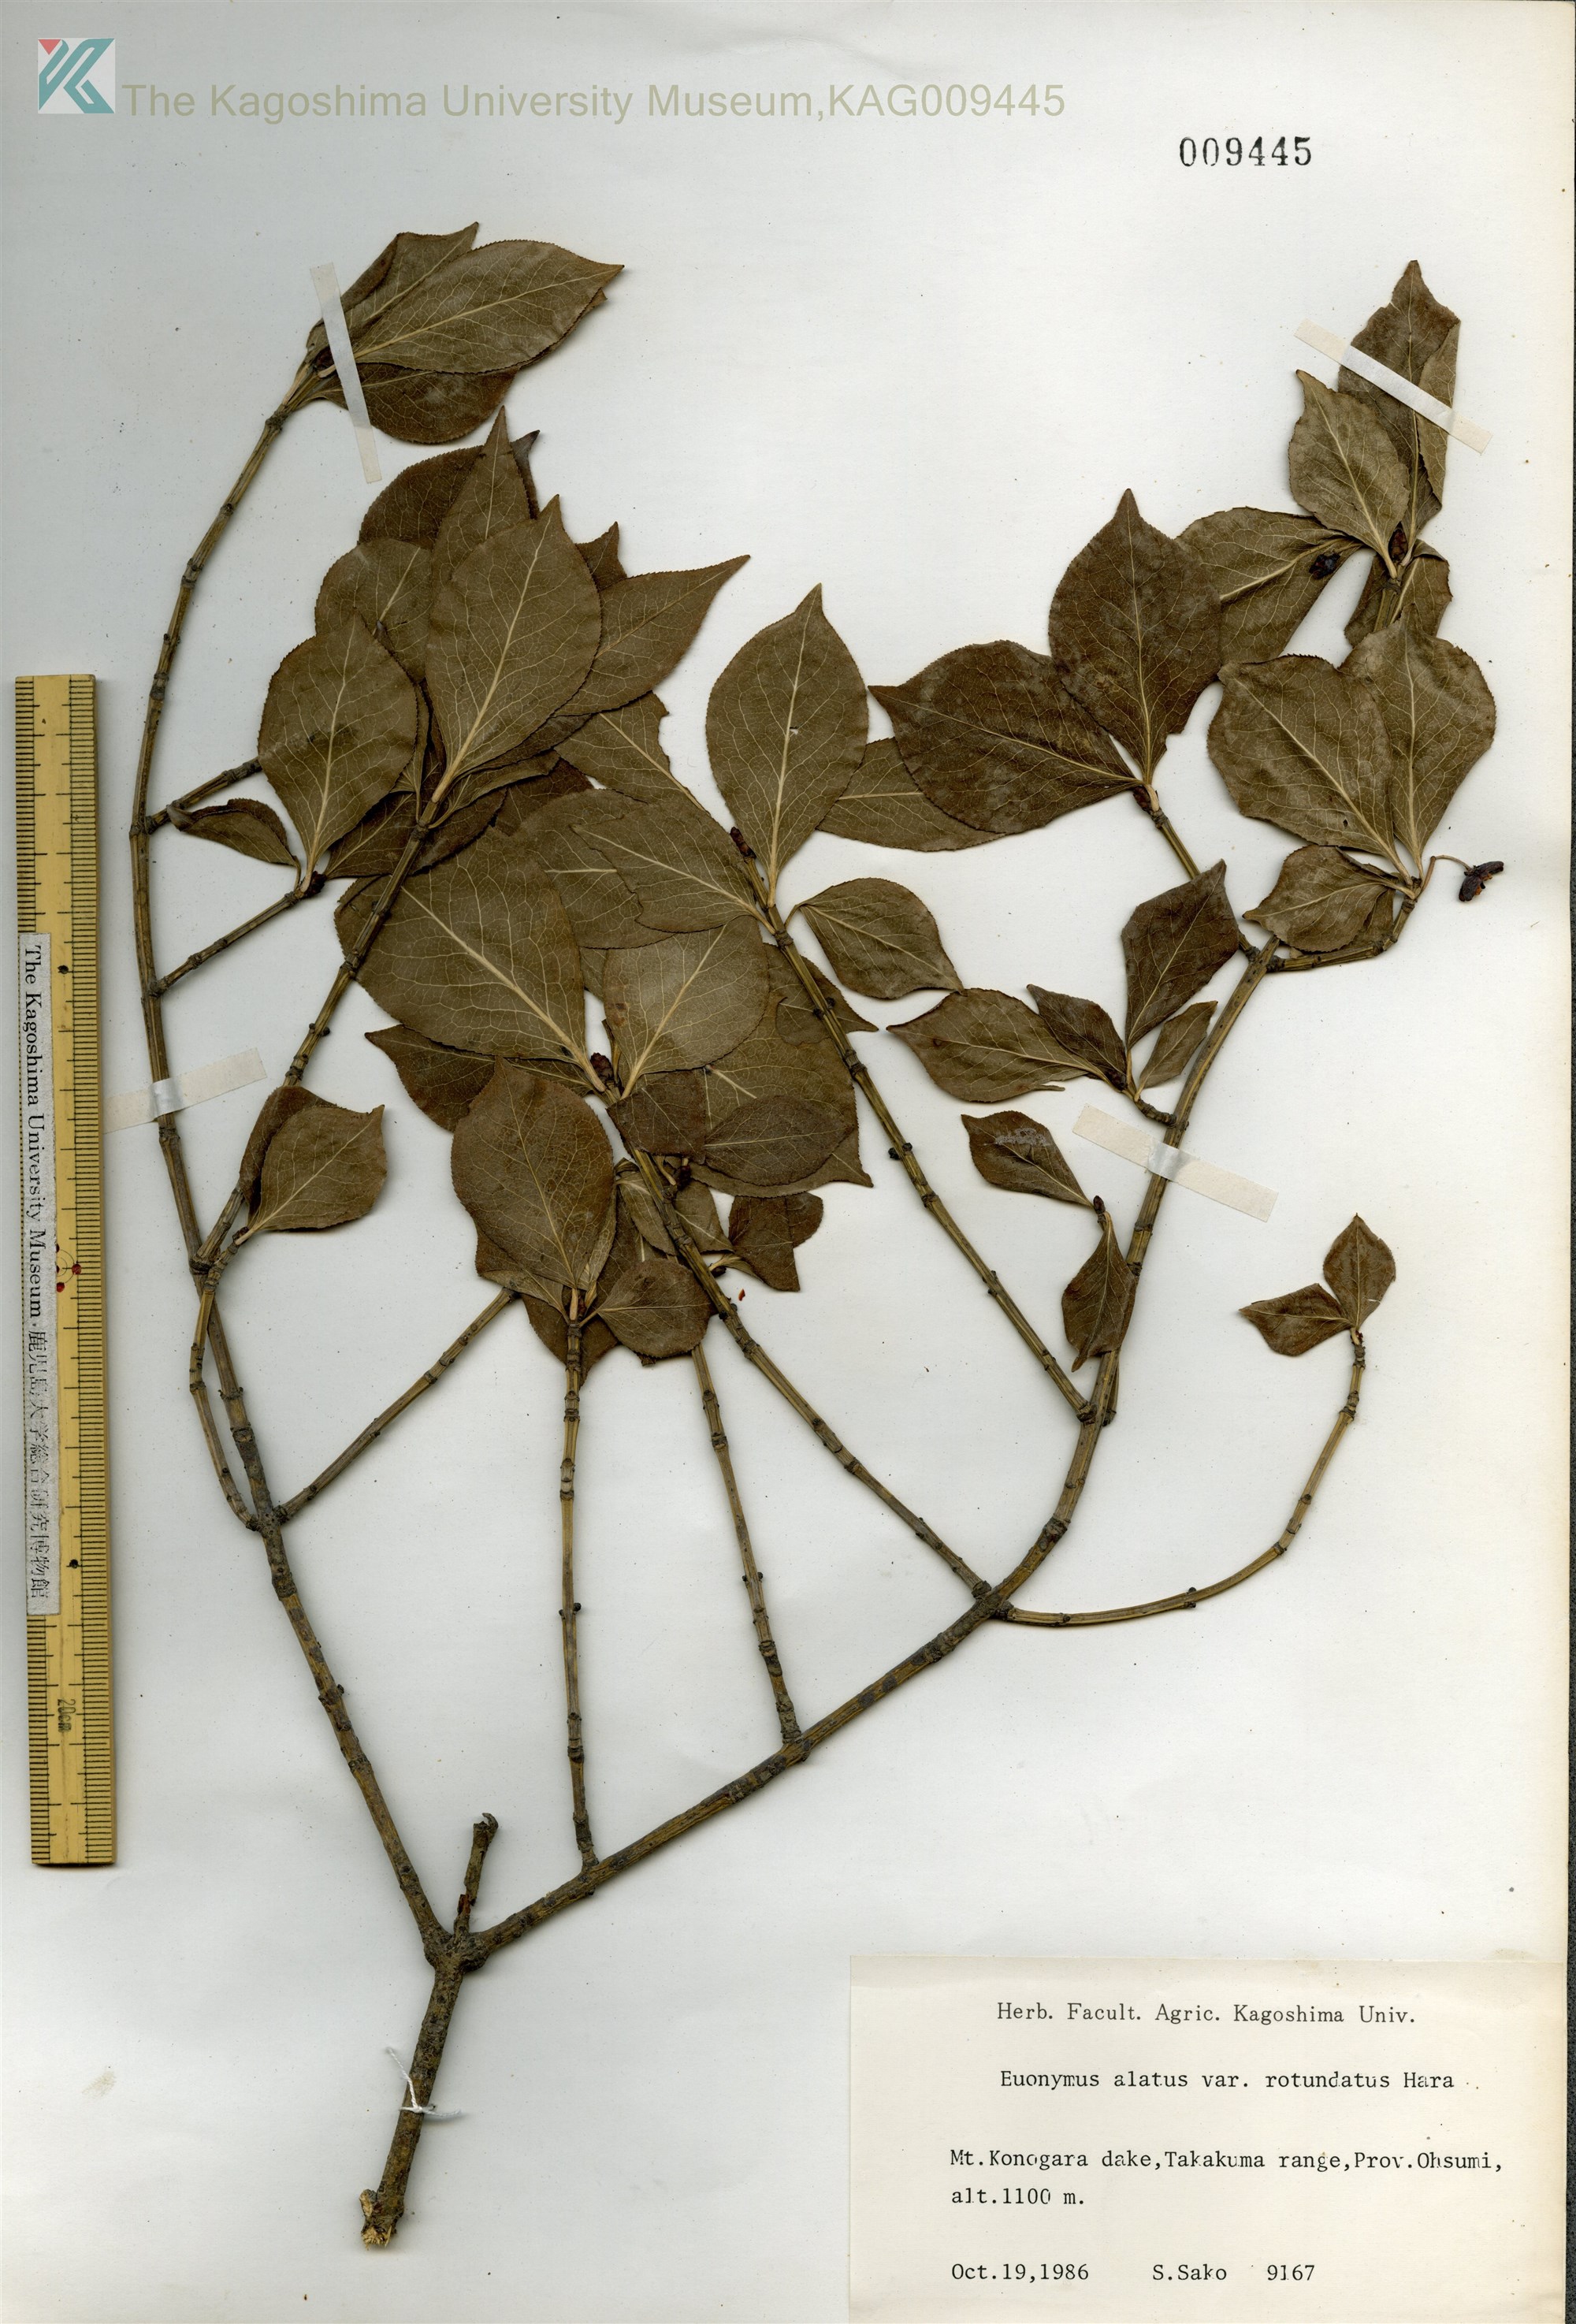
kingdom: Plantae
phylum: Tracheophyta
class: Magnoliopsida
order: Celastrales
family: Celastraceae
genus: Euonymus
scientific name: Euonymus alatus
